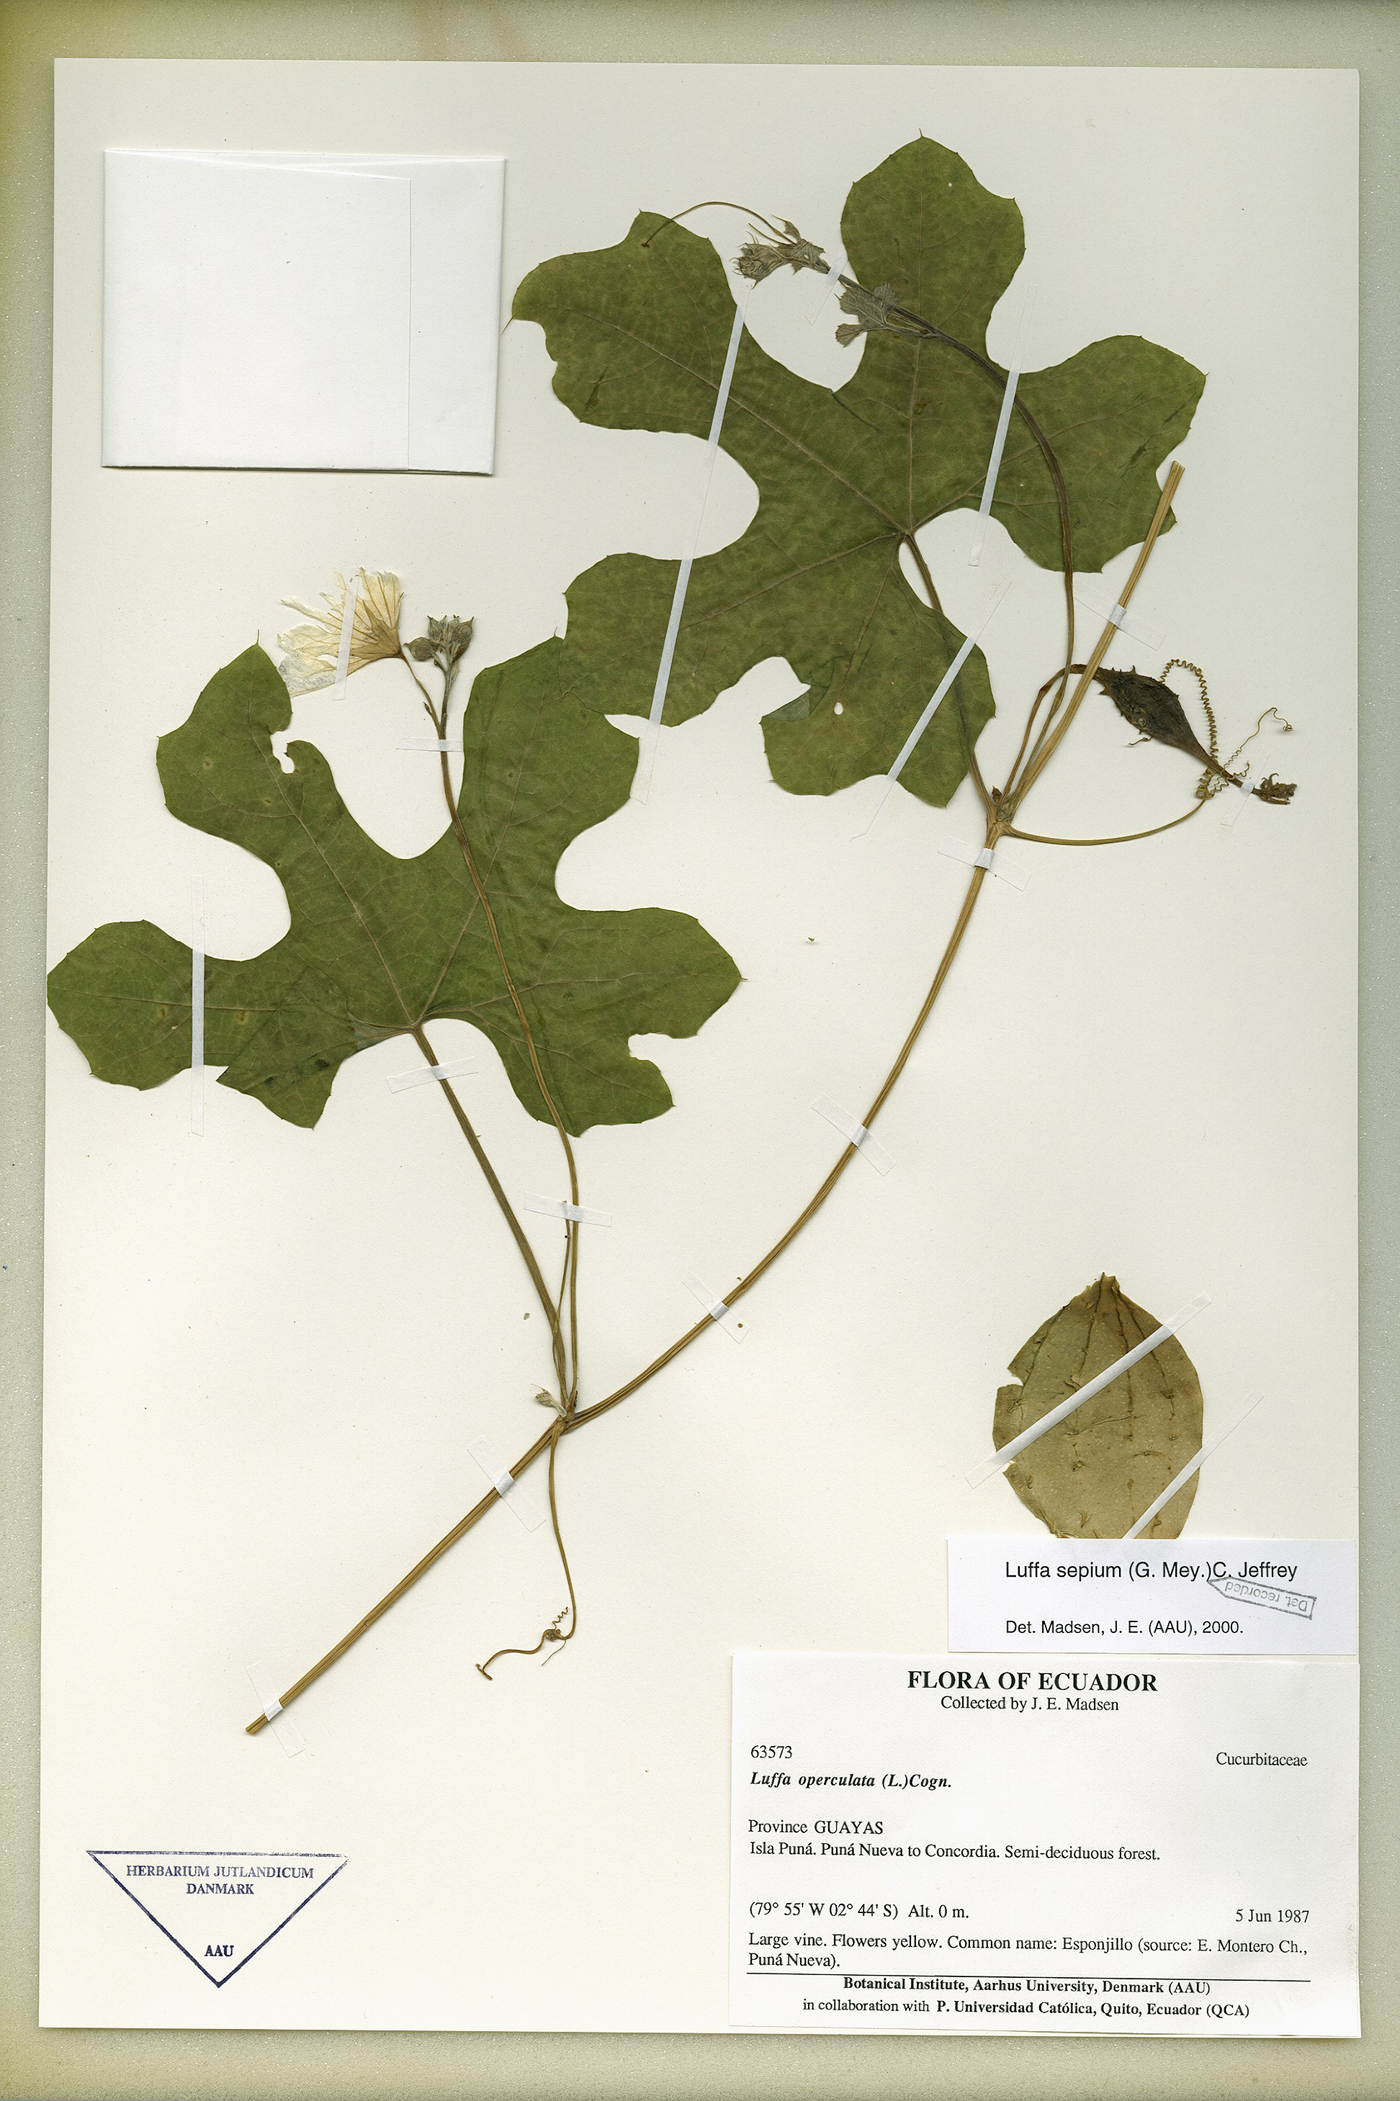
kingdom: Plantae
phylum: Tracheophyta
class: Magnoliopsida
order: Cucurbitales
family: Cucurbitaceae
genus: Luffa
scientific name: Luffa astorii
